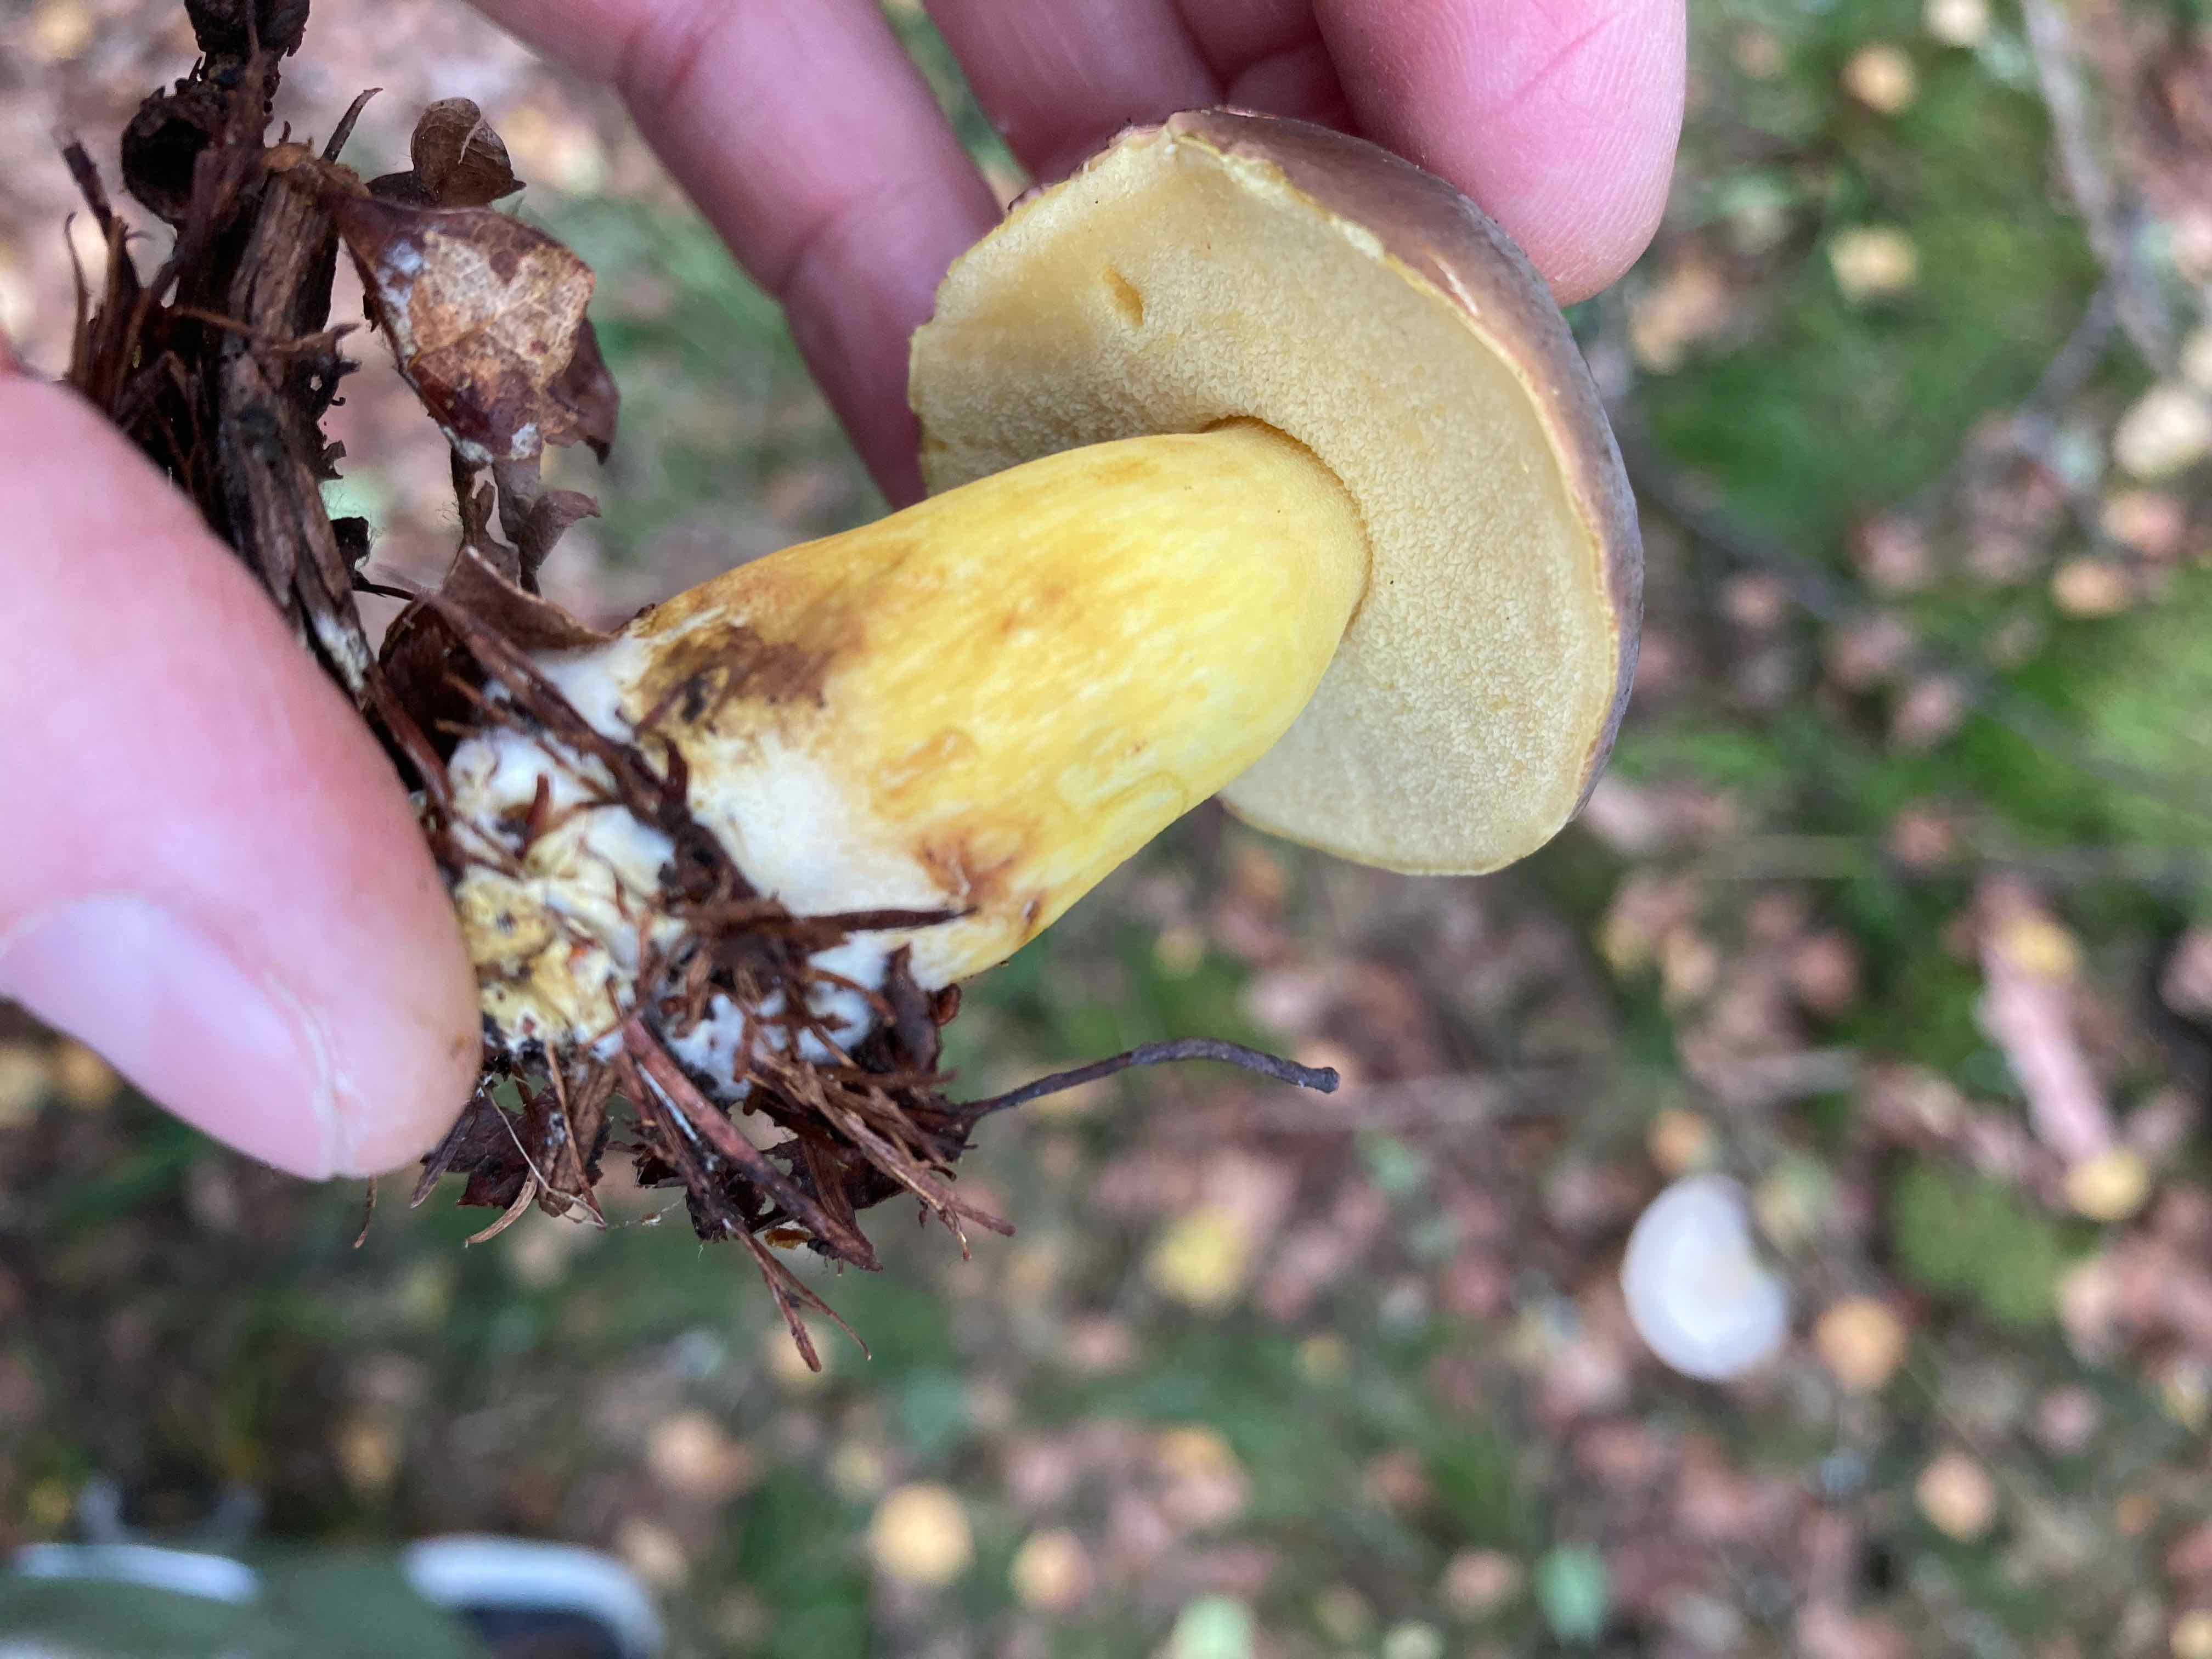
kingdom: Fungi
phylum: Basidiomycota
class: Agaricomycetes
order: Boletales
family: Boletaceae
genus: Xerocomellus
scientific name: Xerocomellus pruinatus
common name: dugget rørhat
